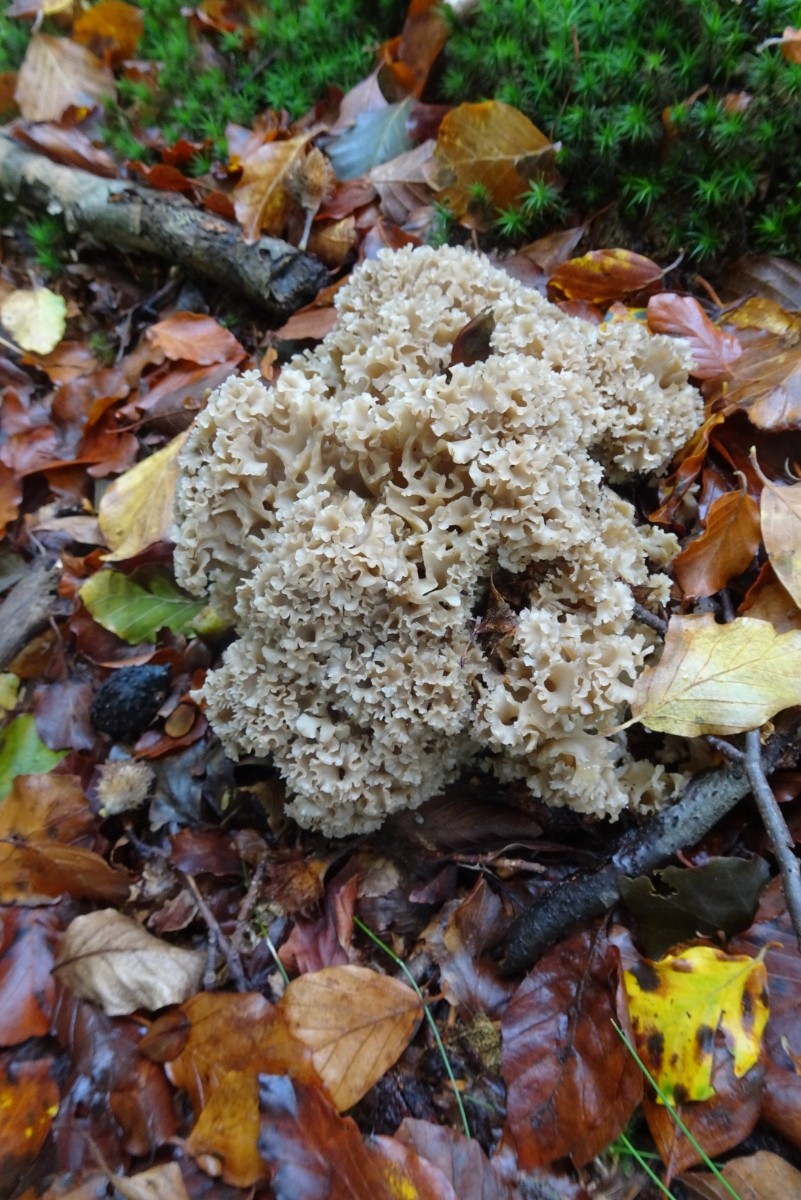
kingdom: Fungi
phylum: Basidiomycota
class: Agaricomycetes
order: Polyporales
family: Sparassidaceae
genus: Sparassis
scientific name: Sparassis crispa
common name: kruset blomkålssvamp
